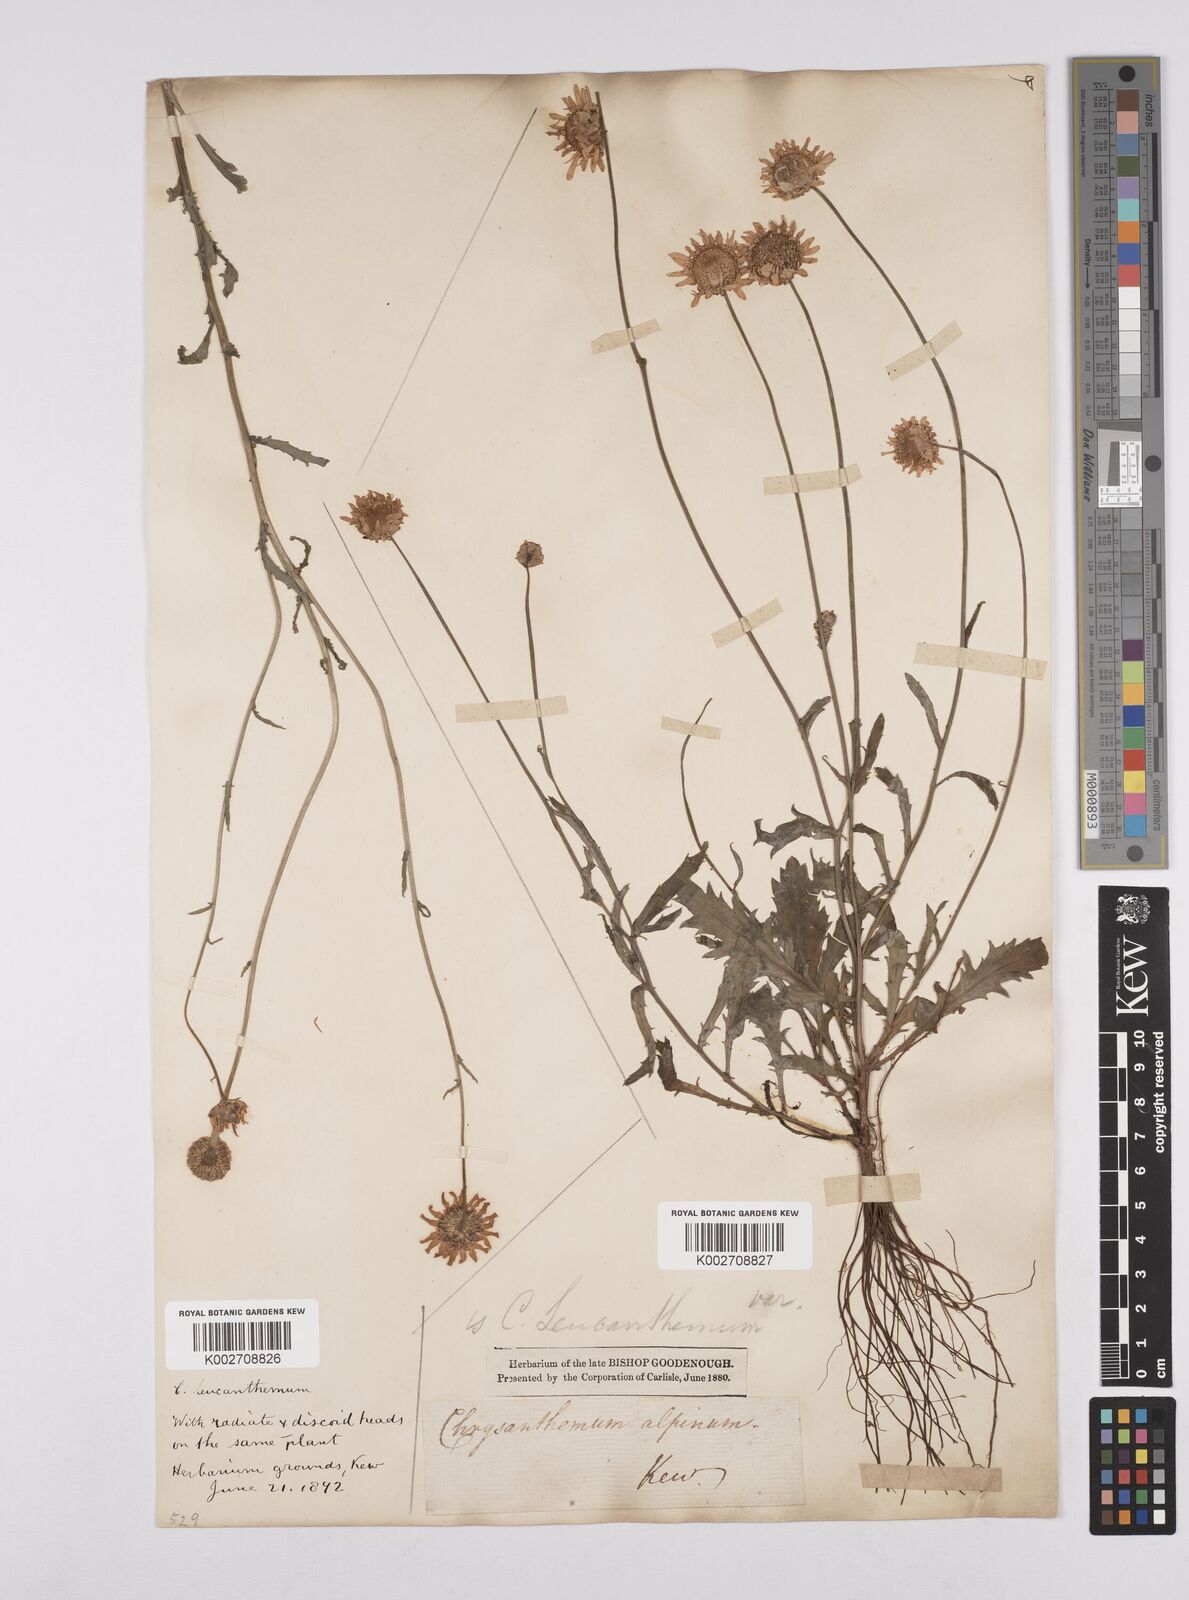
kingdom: Plantae
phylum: Tracheophyta
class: Magnoliopsida
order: Asterales
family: Asteraceae
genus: Leucanthemum
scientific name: Leucanthemum
